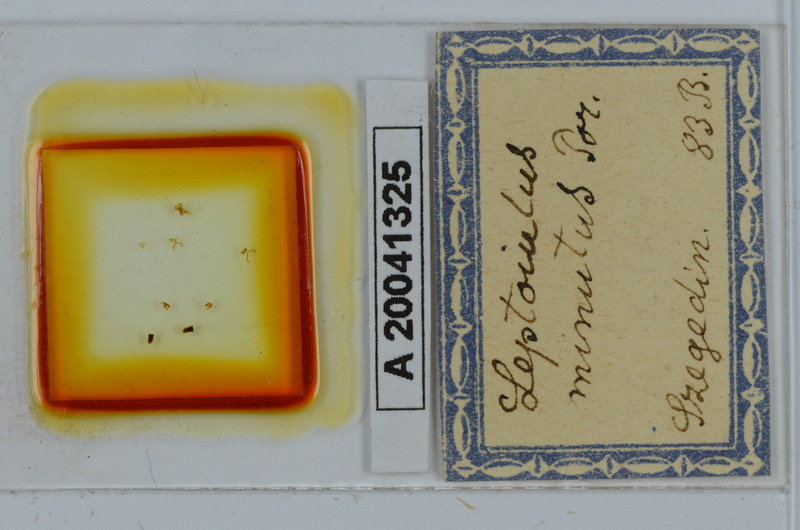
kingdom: Animalia
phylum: Arthropoda
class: Diplopoda
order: Julida
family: Julidae
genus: Leptoiulus
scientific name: Leptoiulus cibdellus
